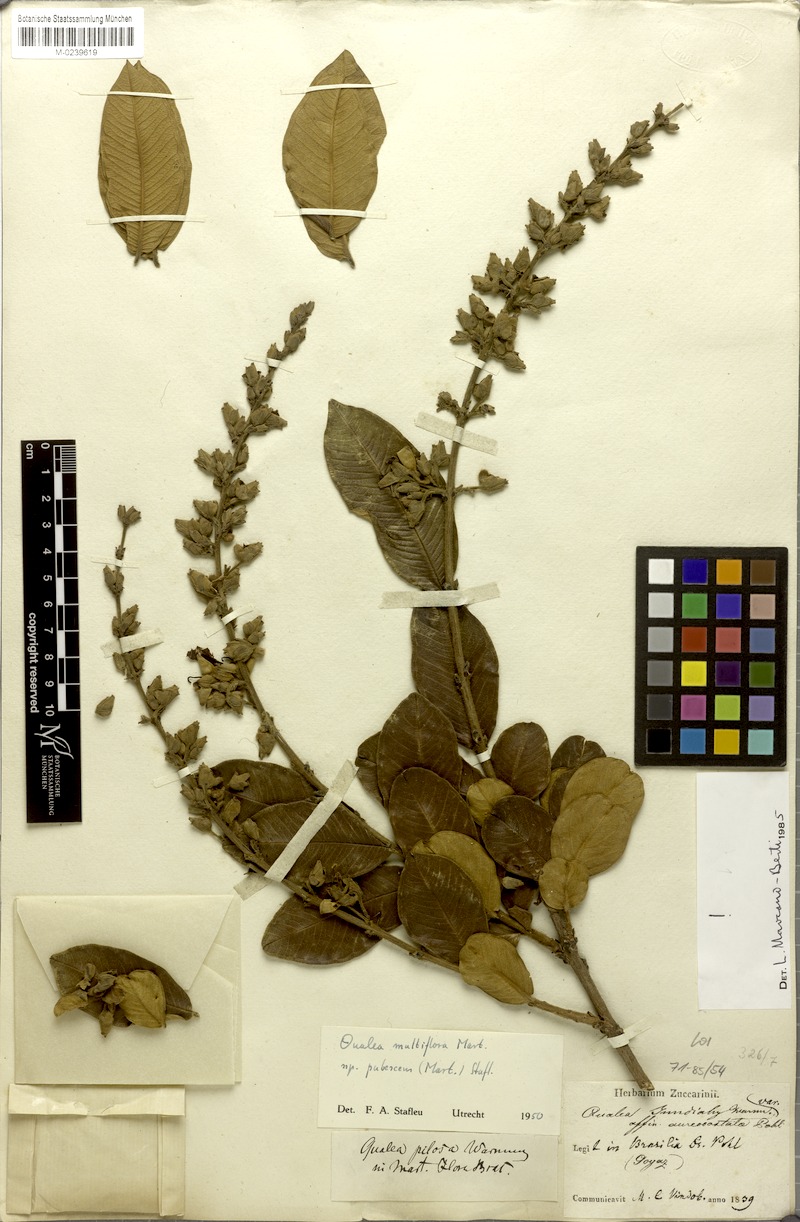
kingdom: Plantae
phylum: Tracheophyta
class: Magnoliopsida
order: Myrtales
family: Vochysiaceae
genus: Qualea
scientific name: Qualea multiflora
